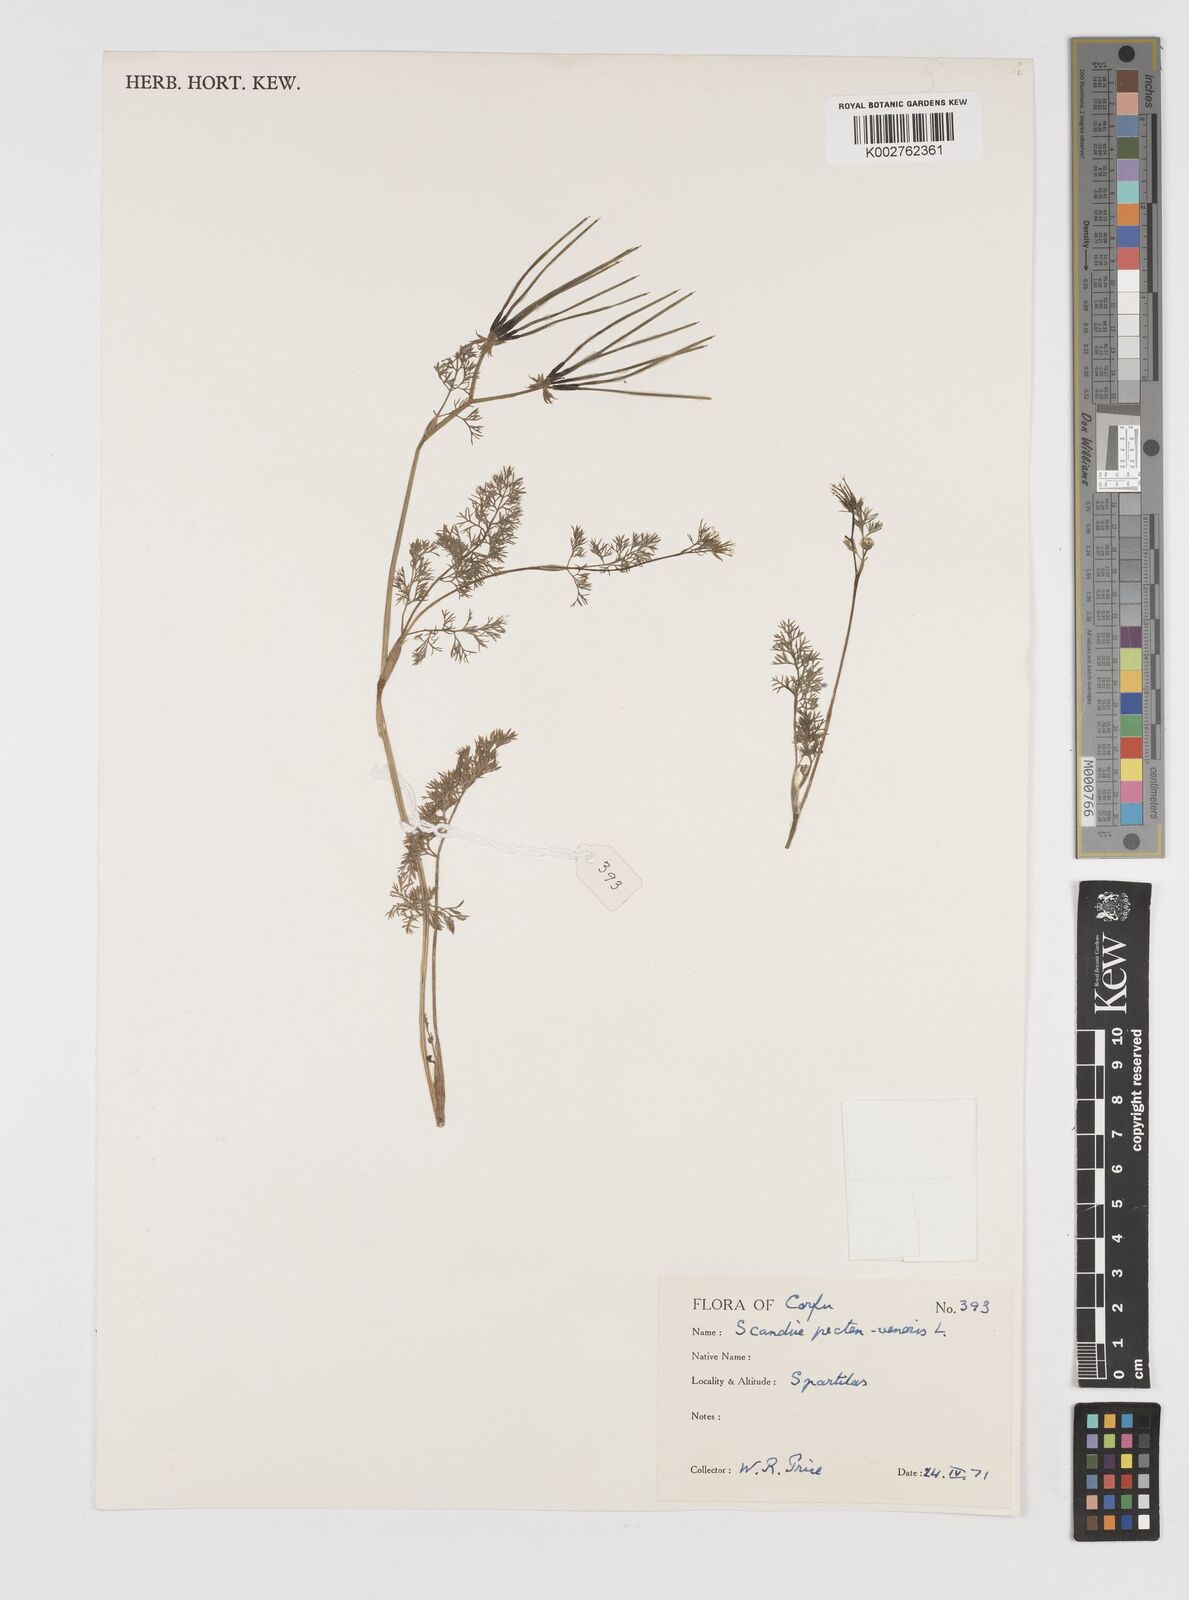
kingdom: Plantae
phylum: Tracheophyta
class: Magnoliopsida
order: Apiales
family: Apiaceae
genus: Scandix
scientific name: Scandix pecten-veneris
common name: Shepherd's-needle
